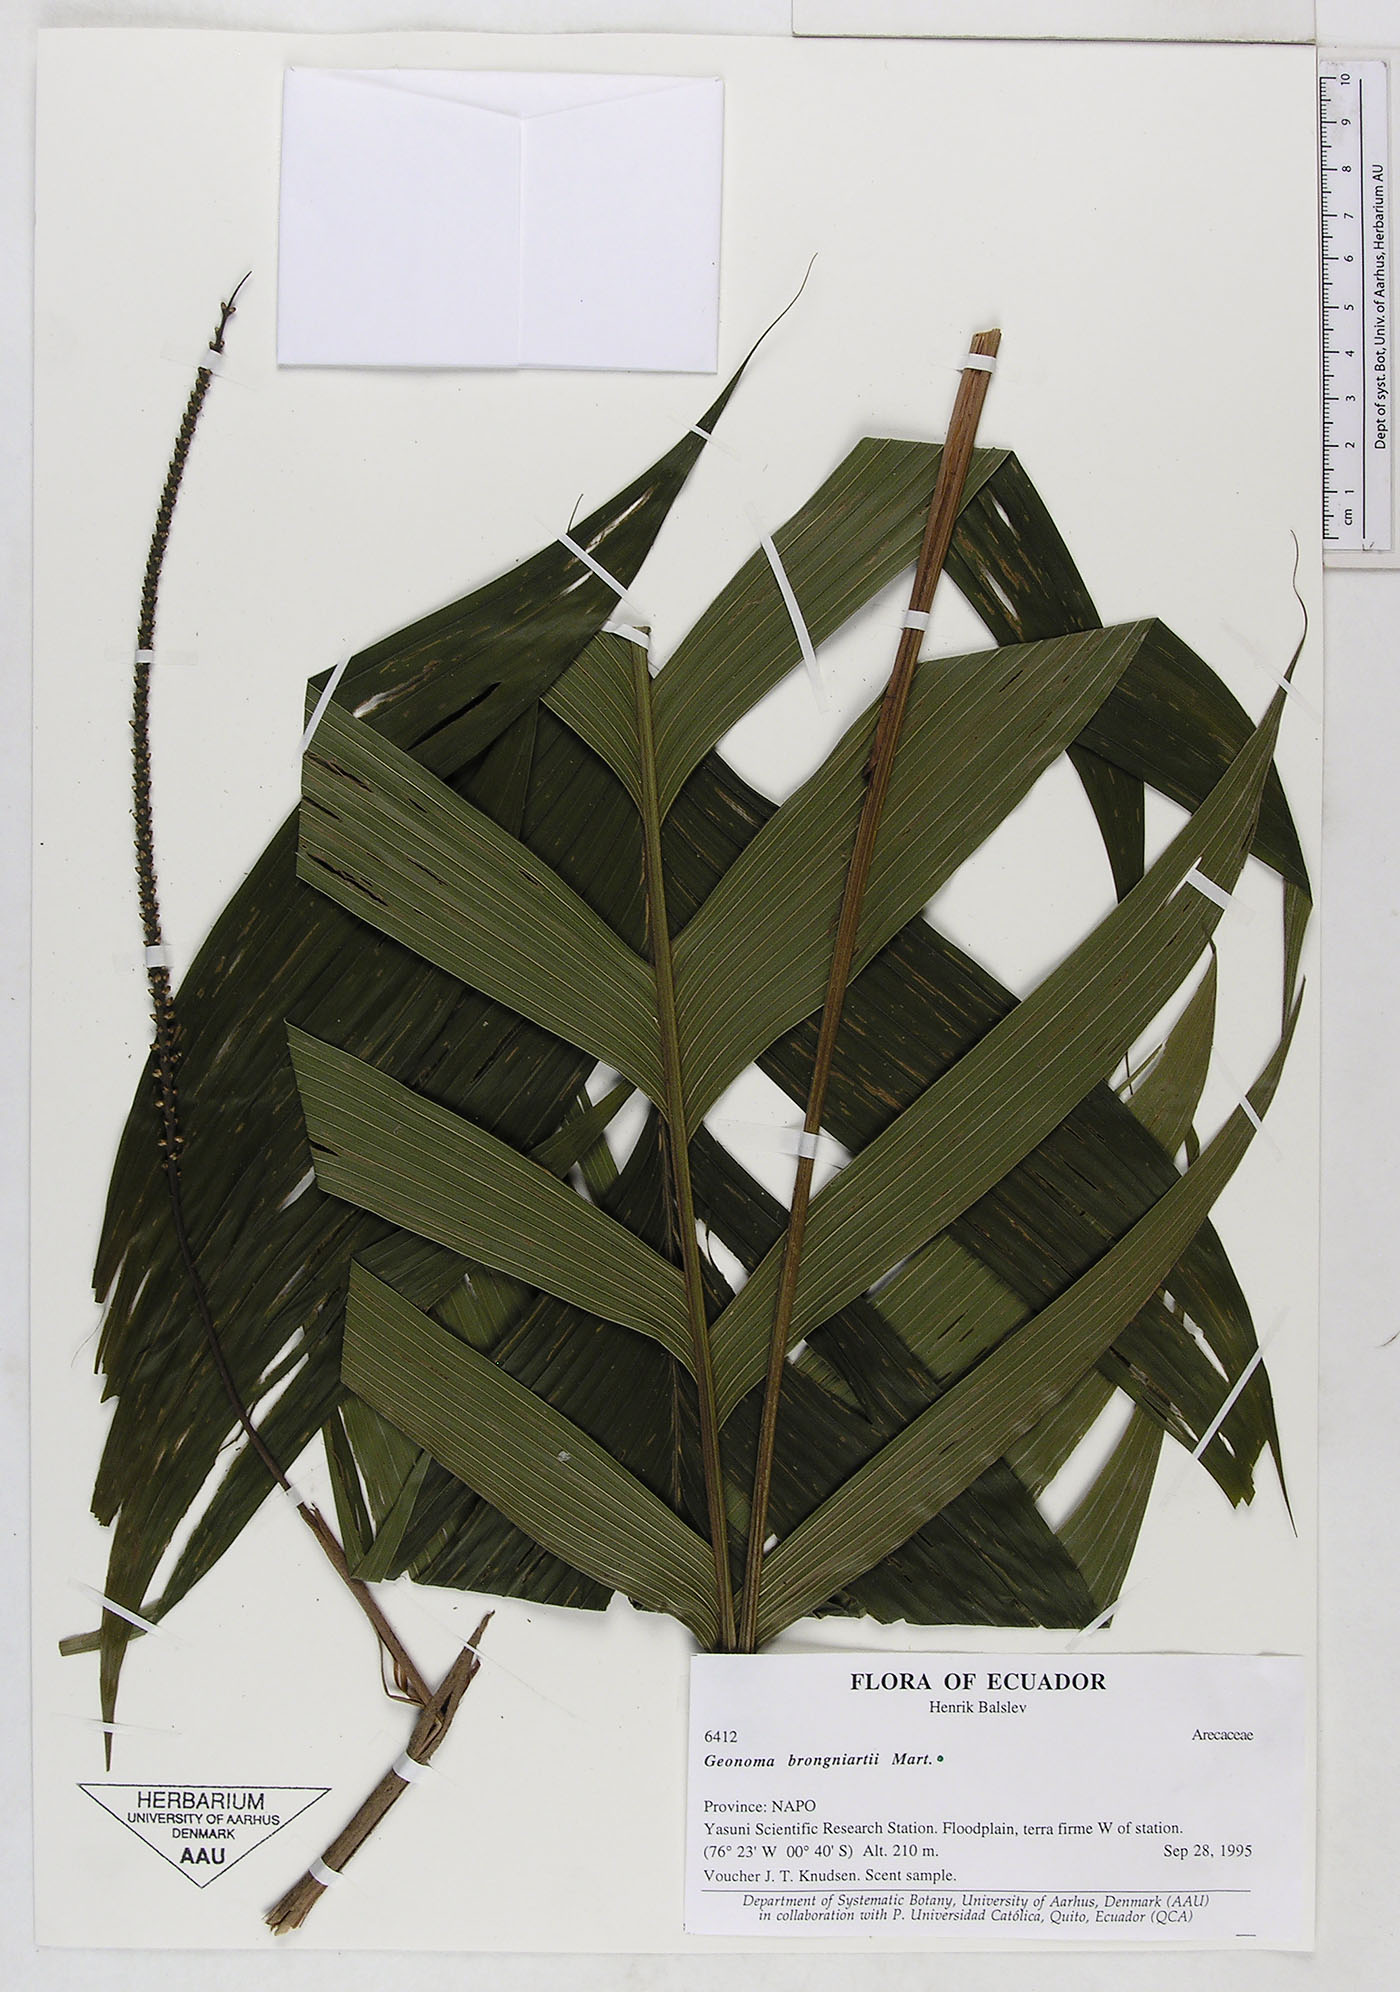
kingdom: Plantae
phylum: Tracheophyta
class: Liliopsida
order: Arecales
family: Arecaceae
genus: Geonoma
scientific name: Geonoma brongniartii
